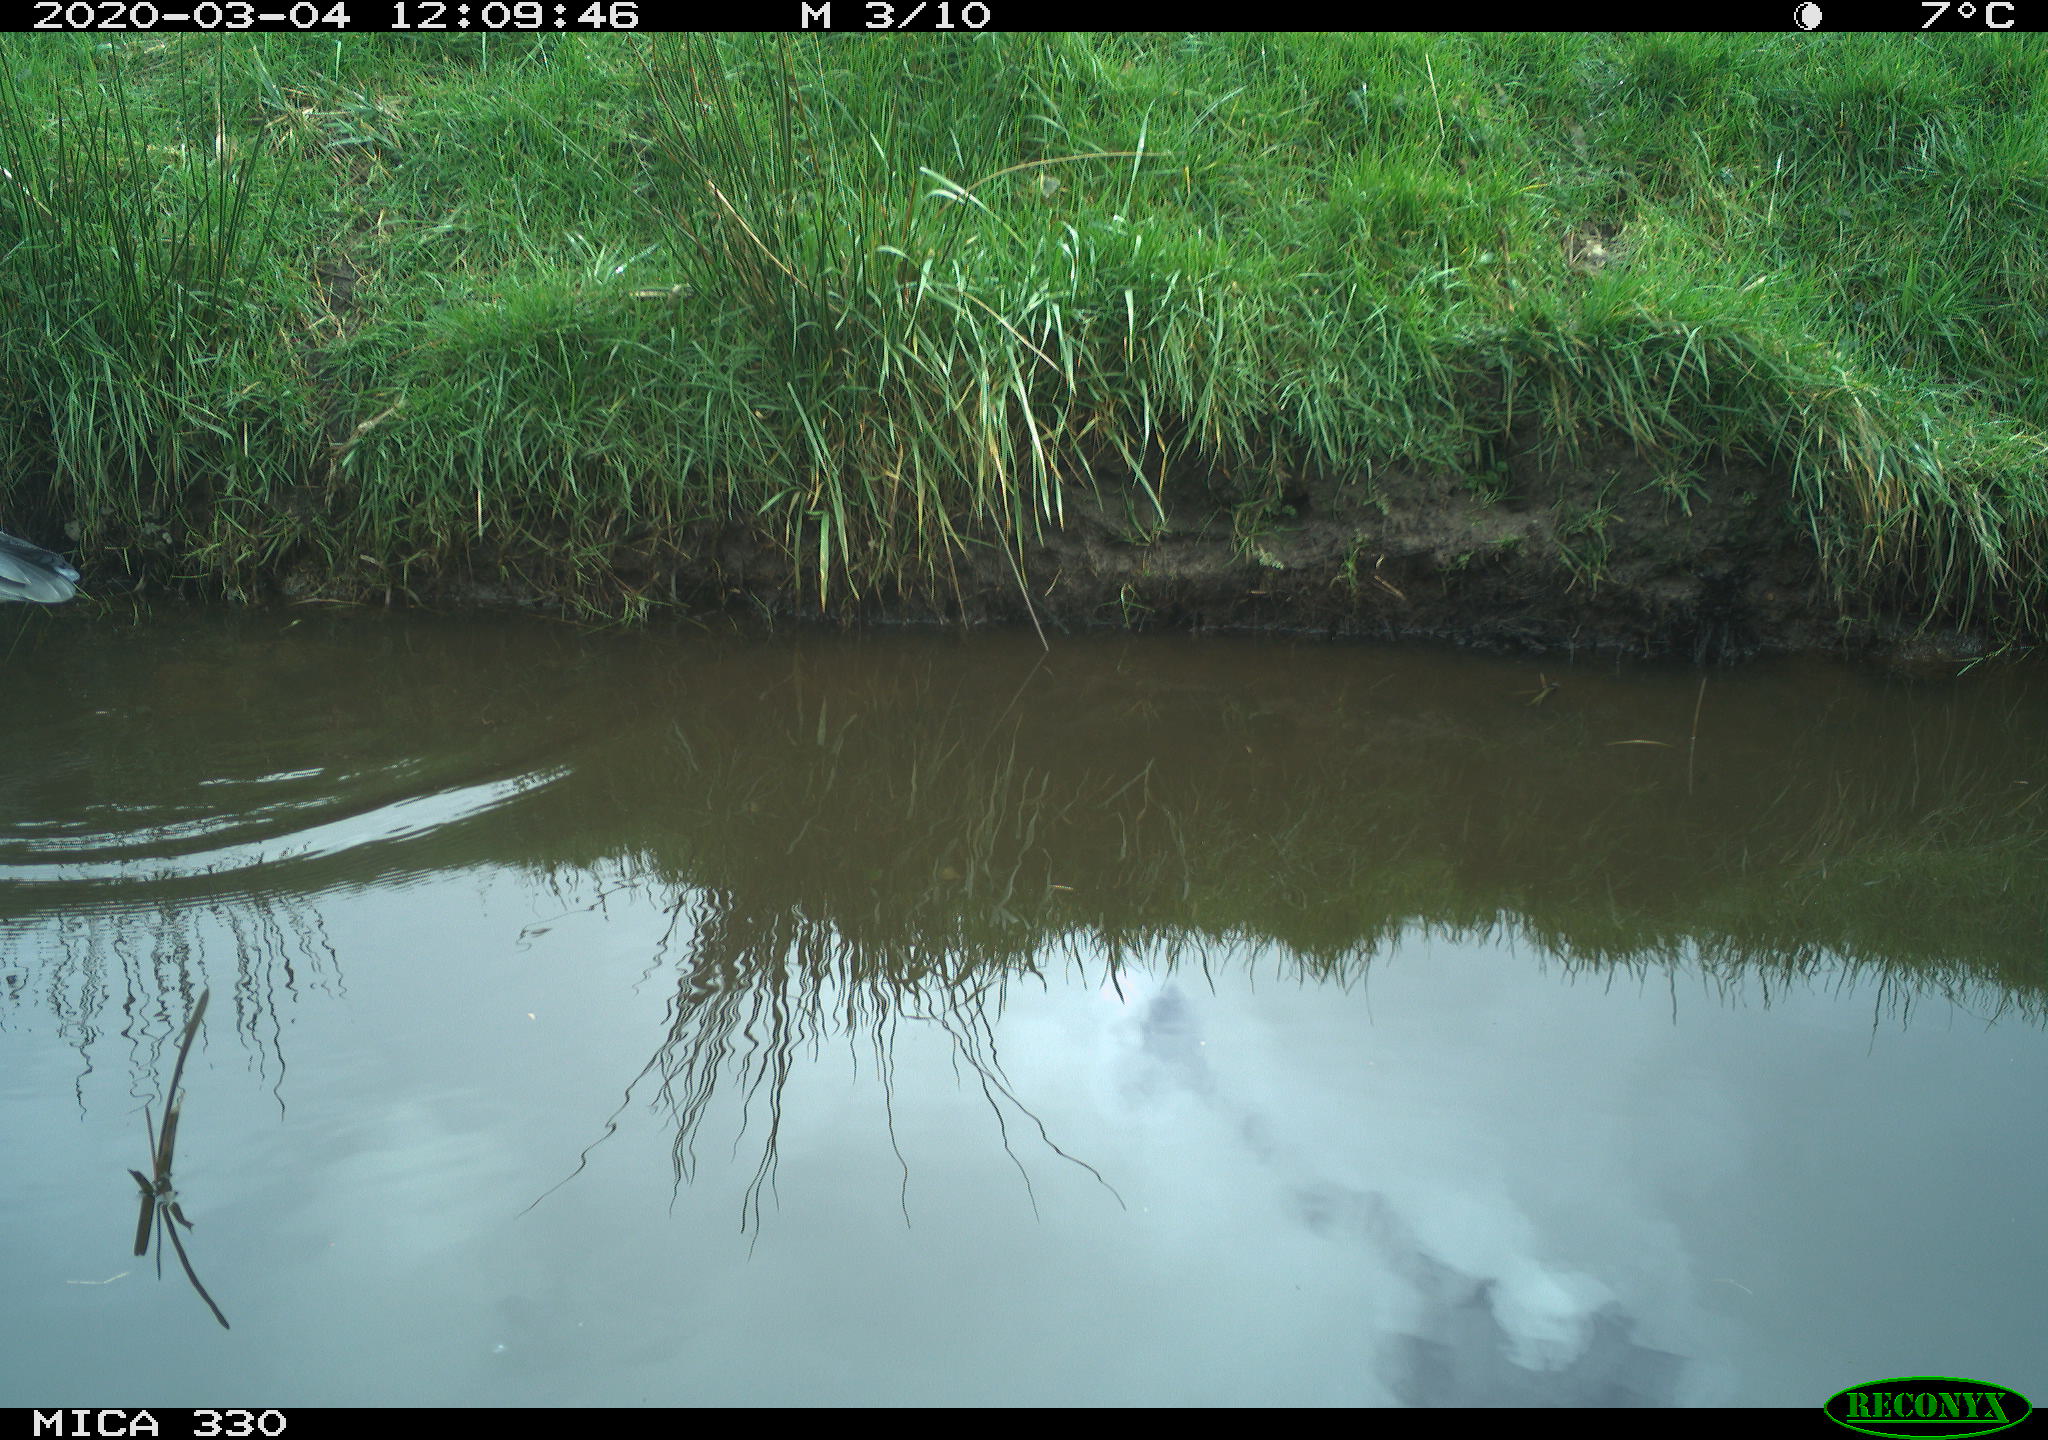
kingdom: Animalia
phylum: Chordata
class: Aves
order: Pelecaniformes
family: Ardeidae
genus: Ardea
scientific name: Ardea cinerea
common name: Grey heron
